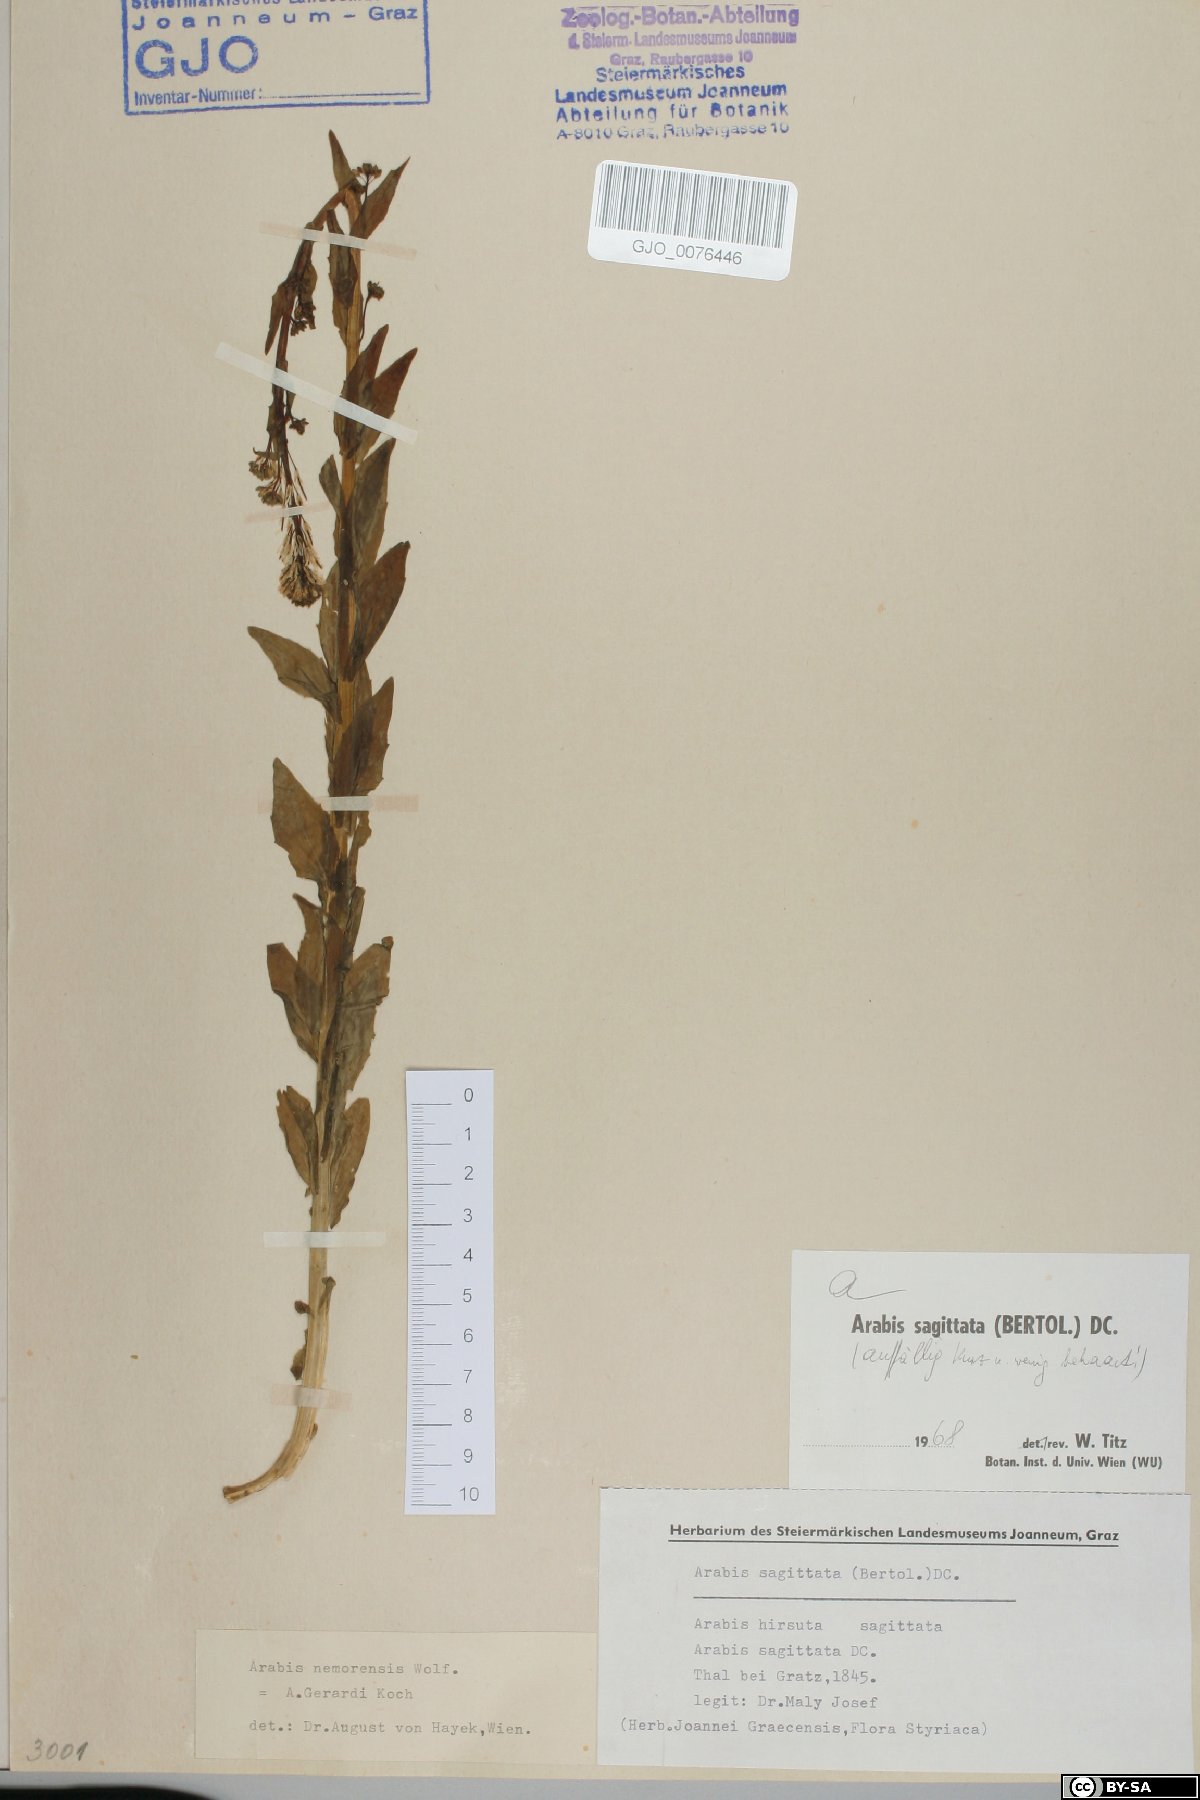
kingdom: Plantae
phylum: Tracheophyta
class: Magnoliopsida
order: Brassicales
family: Brassicaceae
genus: Arabis
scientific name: Arabis sagittata
